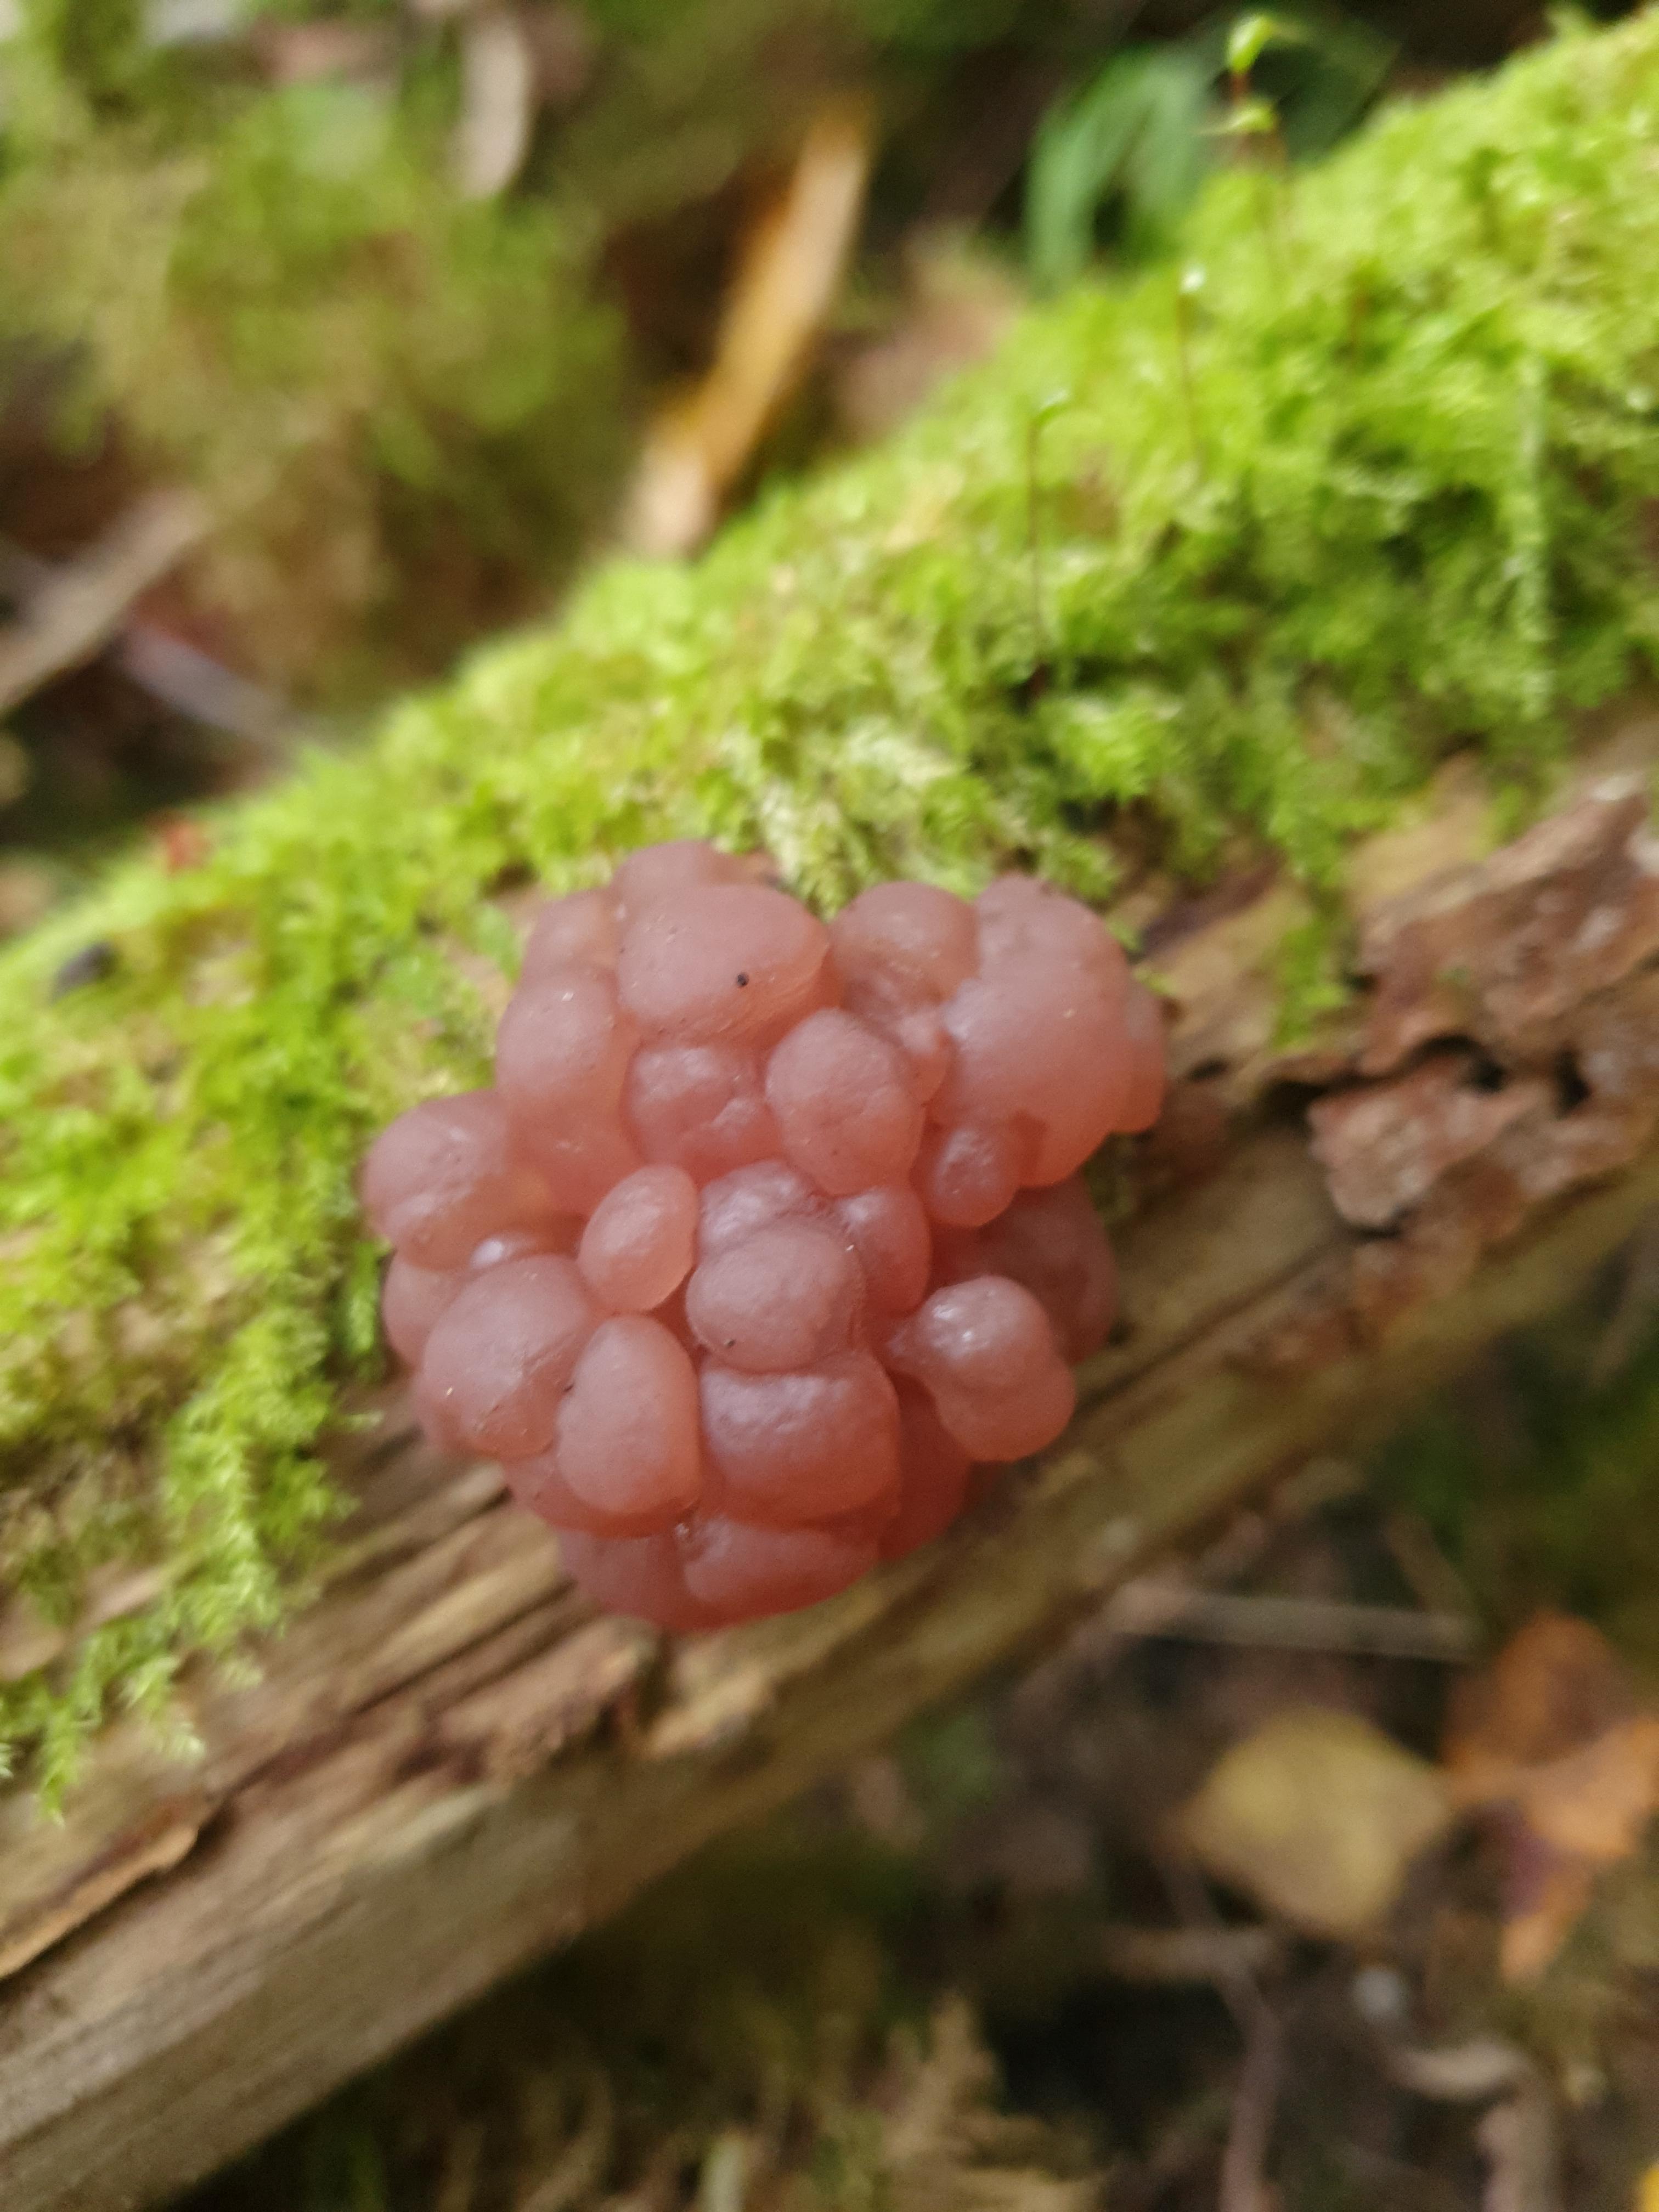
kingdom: Fungi
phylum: Ascomycota
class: Leotiomycetes
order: Helotiales
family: Gelatinodiscaceae
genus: Ascotremella
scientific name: Ascotremella faginea
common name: hjerne-bævreskive
